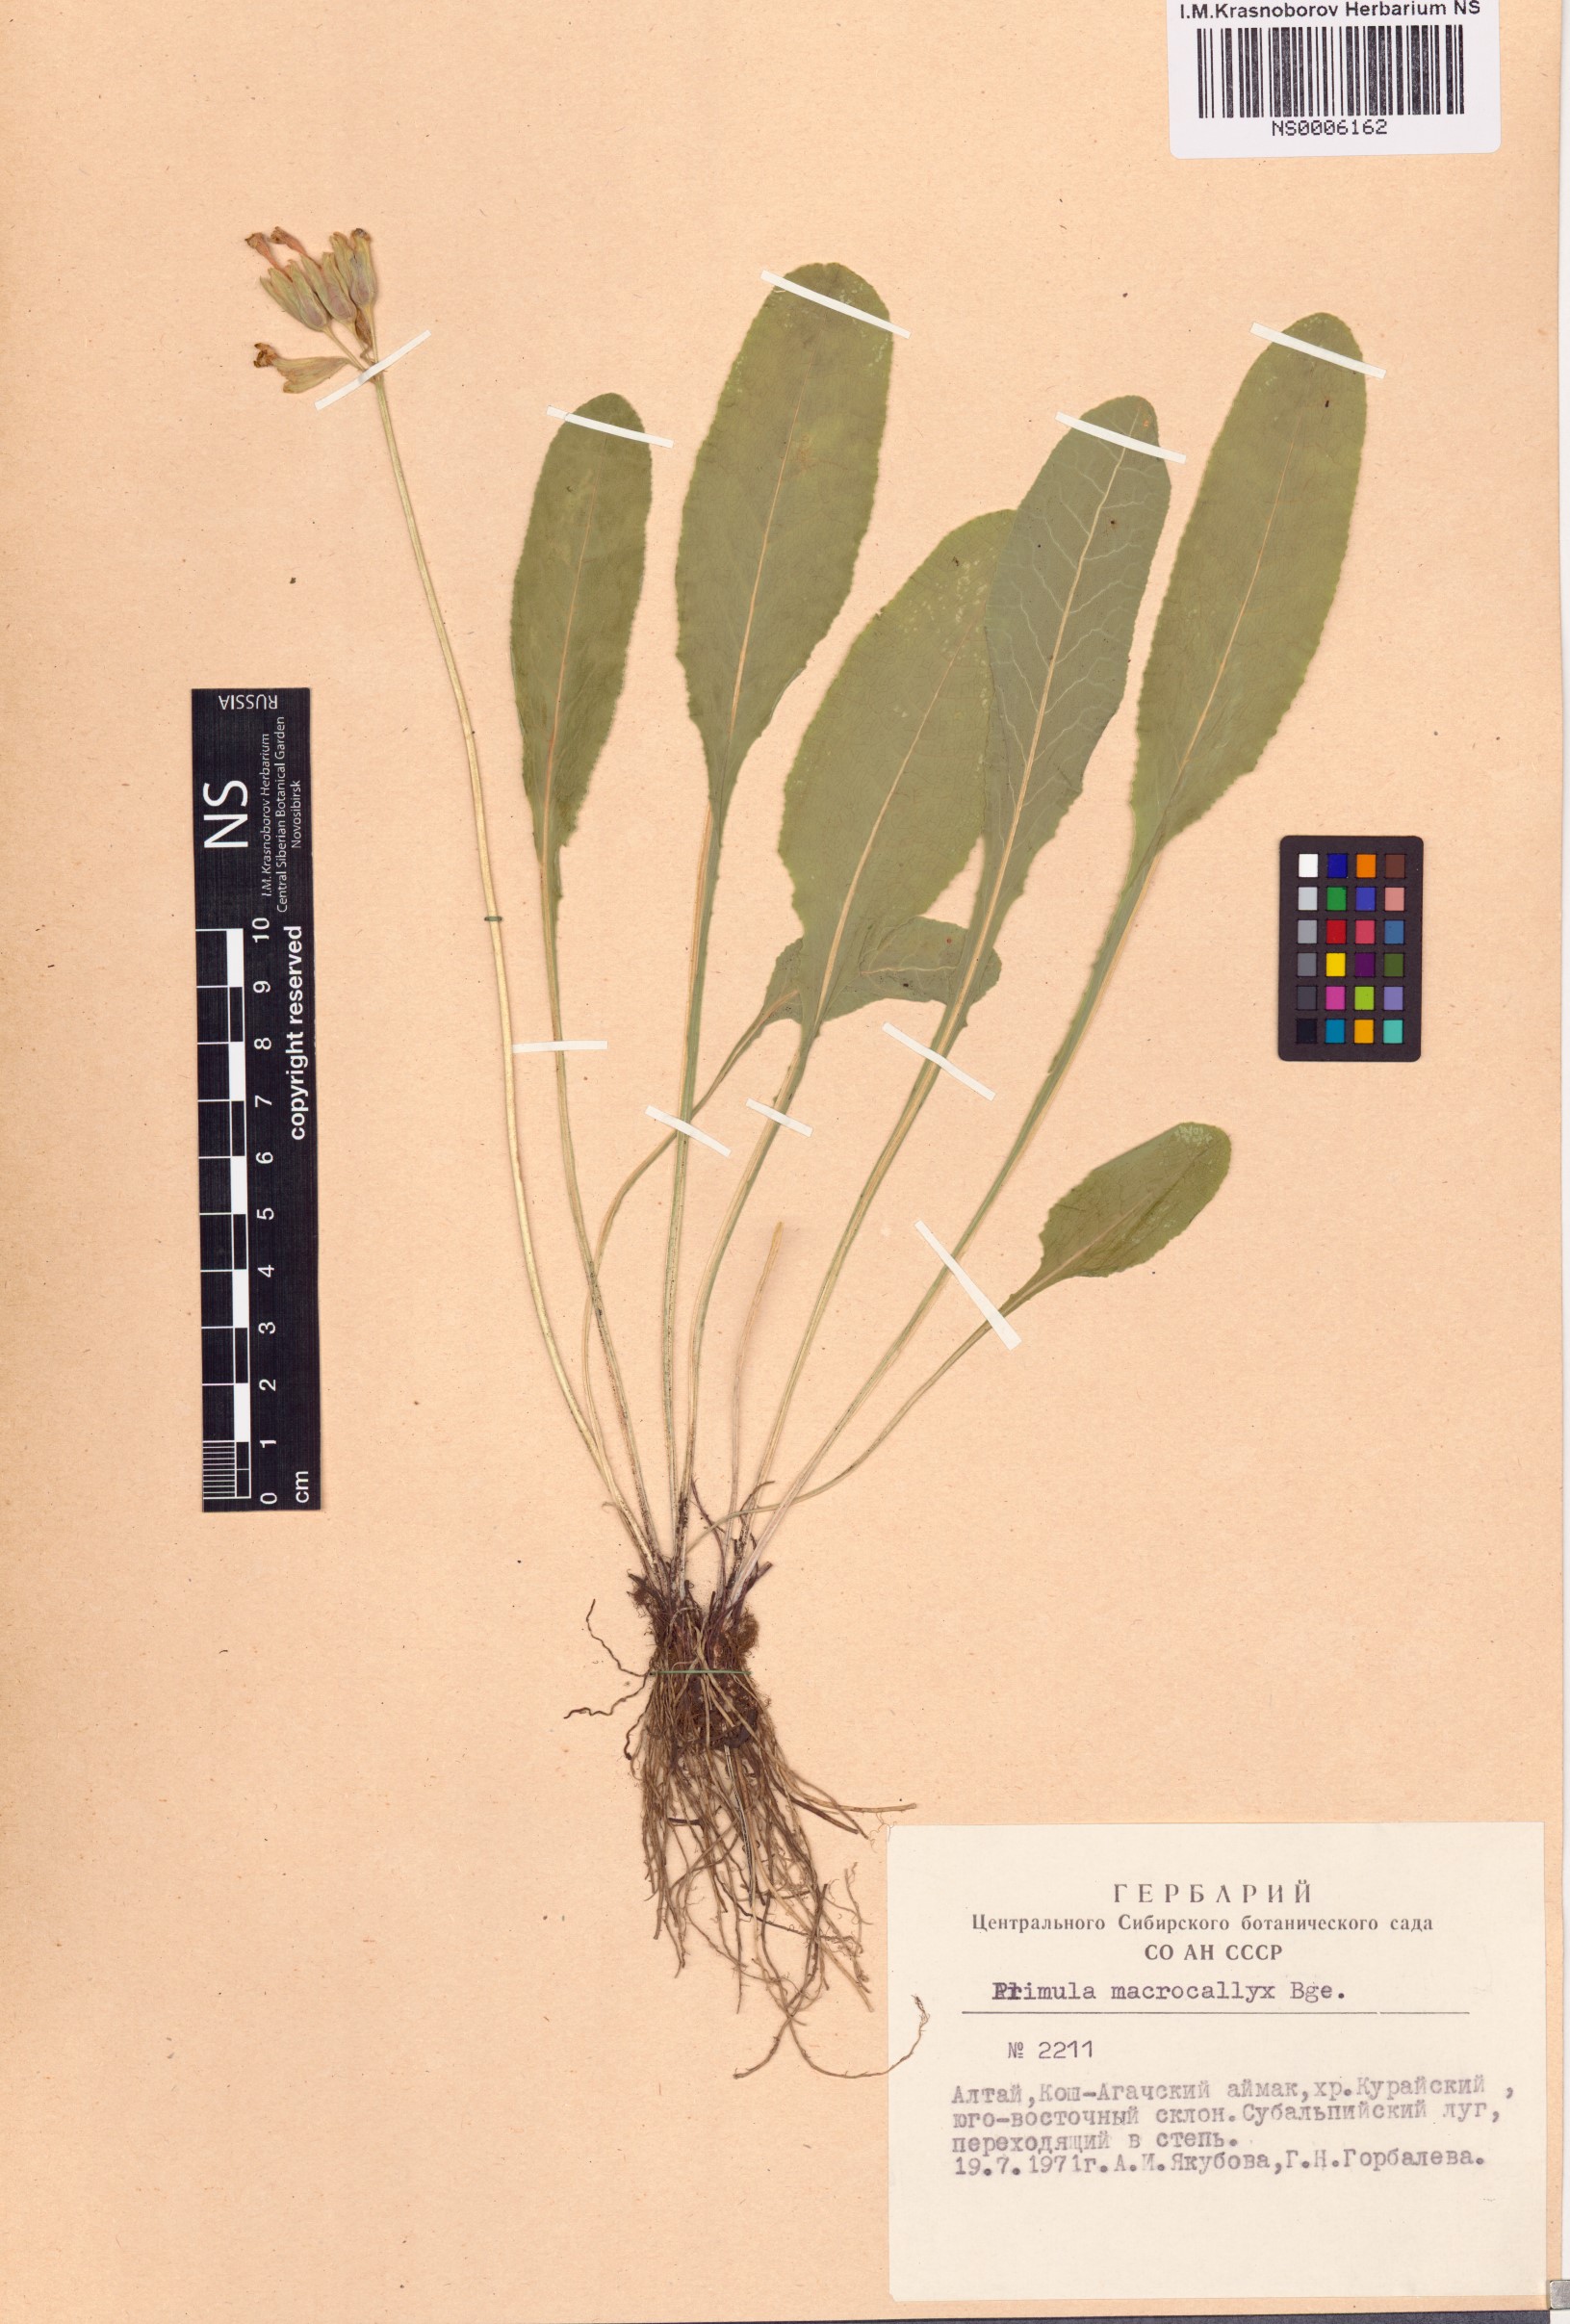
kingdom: Plantae
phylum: Tracheophyta
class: Magnoliopsida
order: Ericales
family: Primulaceae
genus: Primula
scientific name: Primula veris
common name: Cowslip
